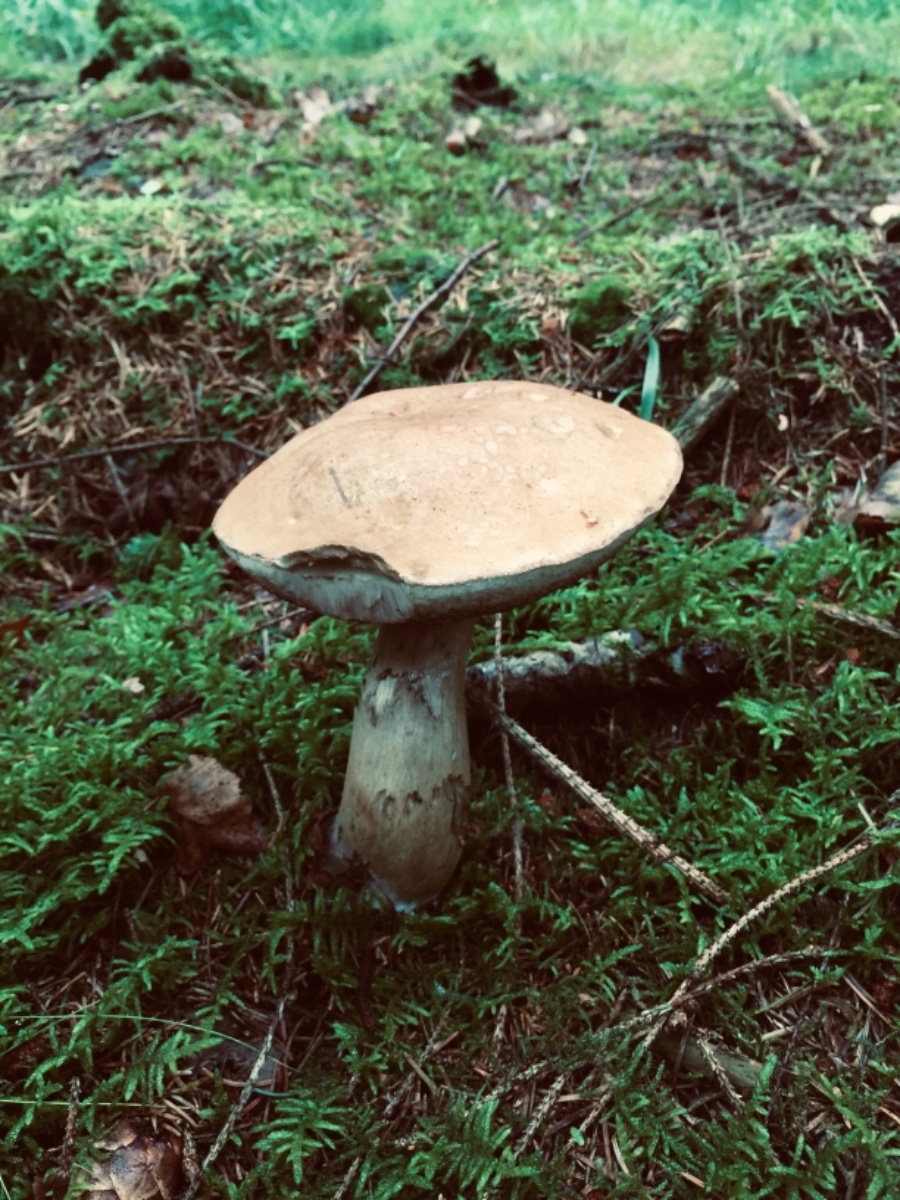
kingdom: Fungi
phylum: Basidiomycota
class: Agaricomycetes
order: Boletales
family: Boletaceae
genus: Tylopilus
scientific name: Tylopilus felleus
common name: galderørhat
